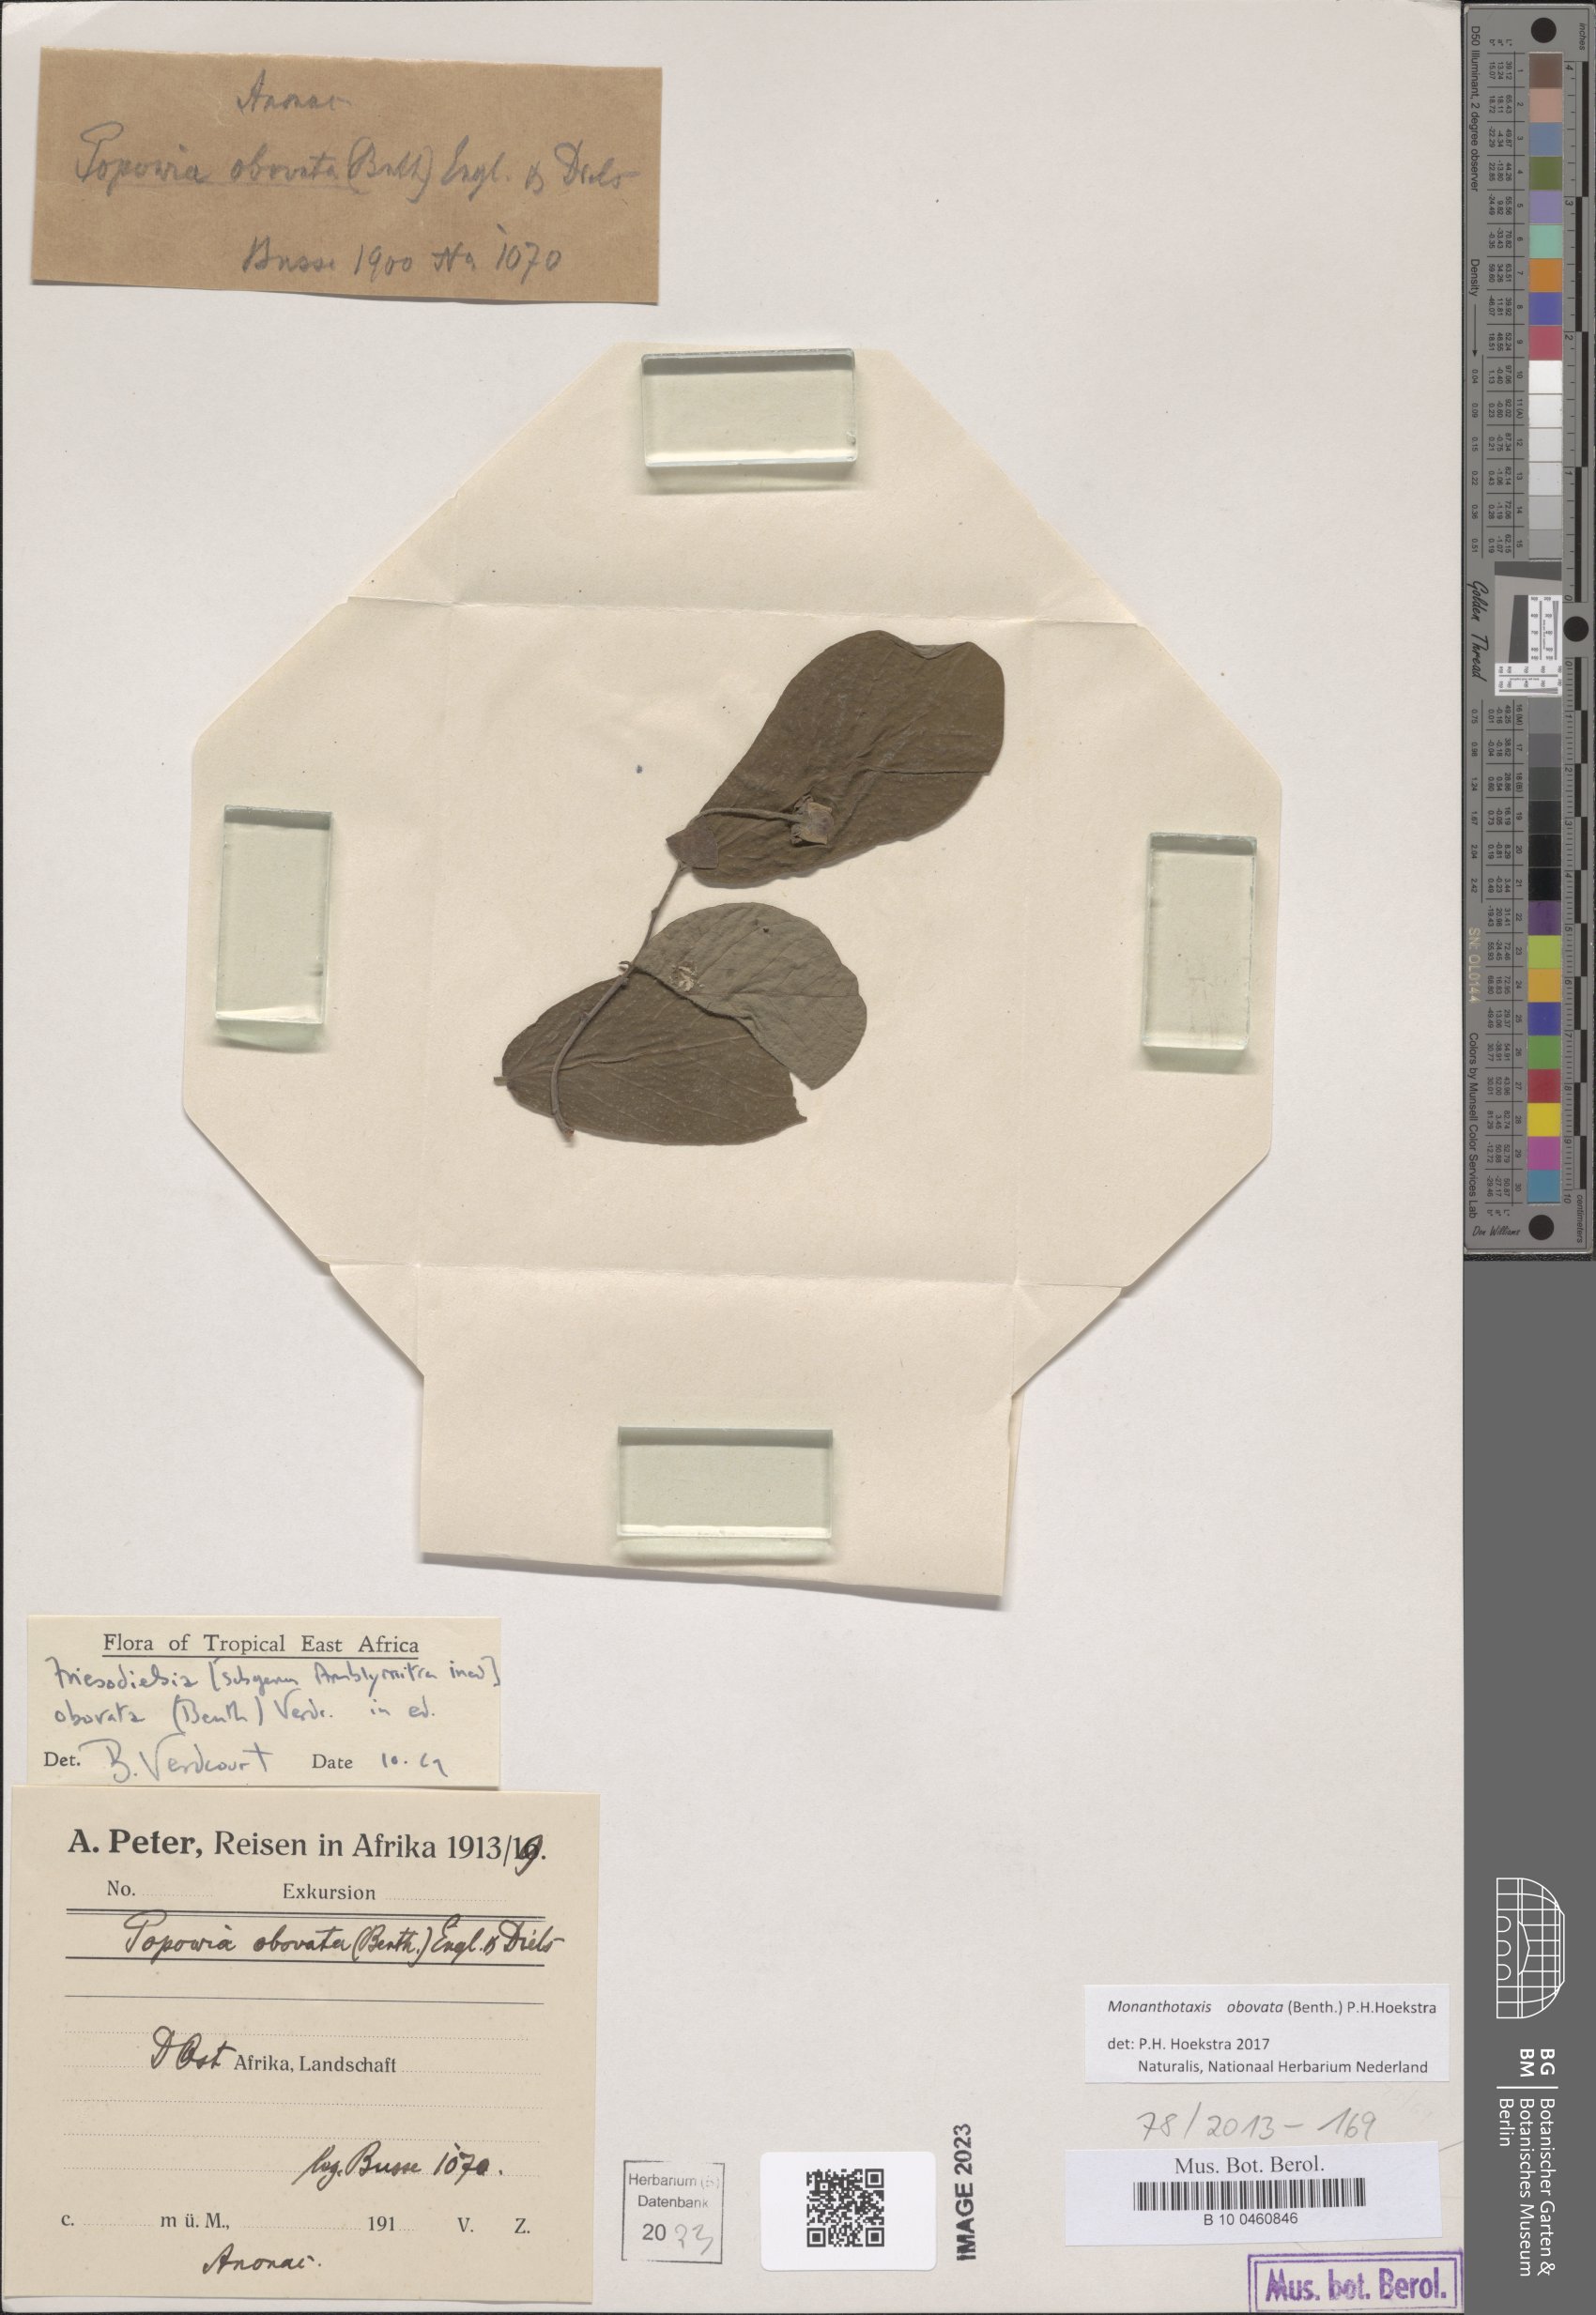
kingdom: Plantae
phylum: Tracheophyta
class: Magnoliopsida
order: Magnoliales
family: Annonaceae
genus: Friesodielsia
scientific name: Friesodielsia obovata
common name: Monkey fingers
